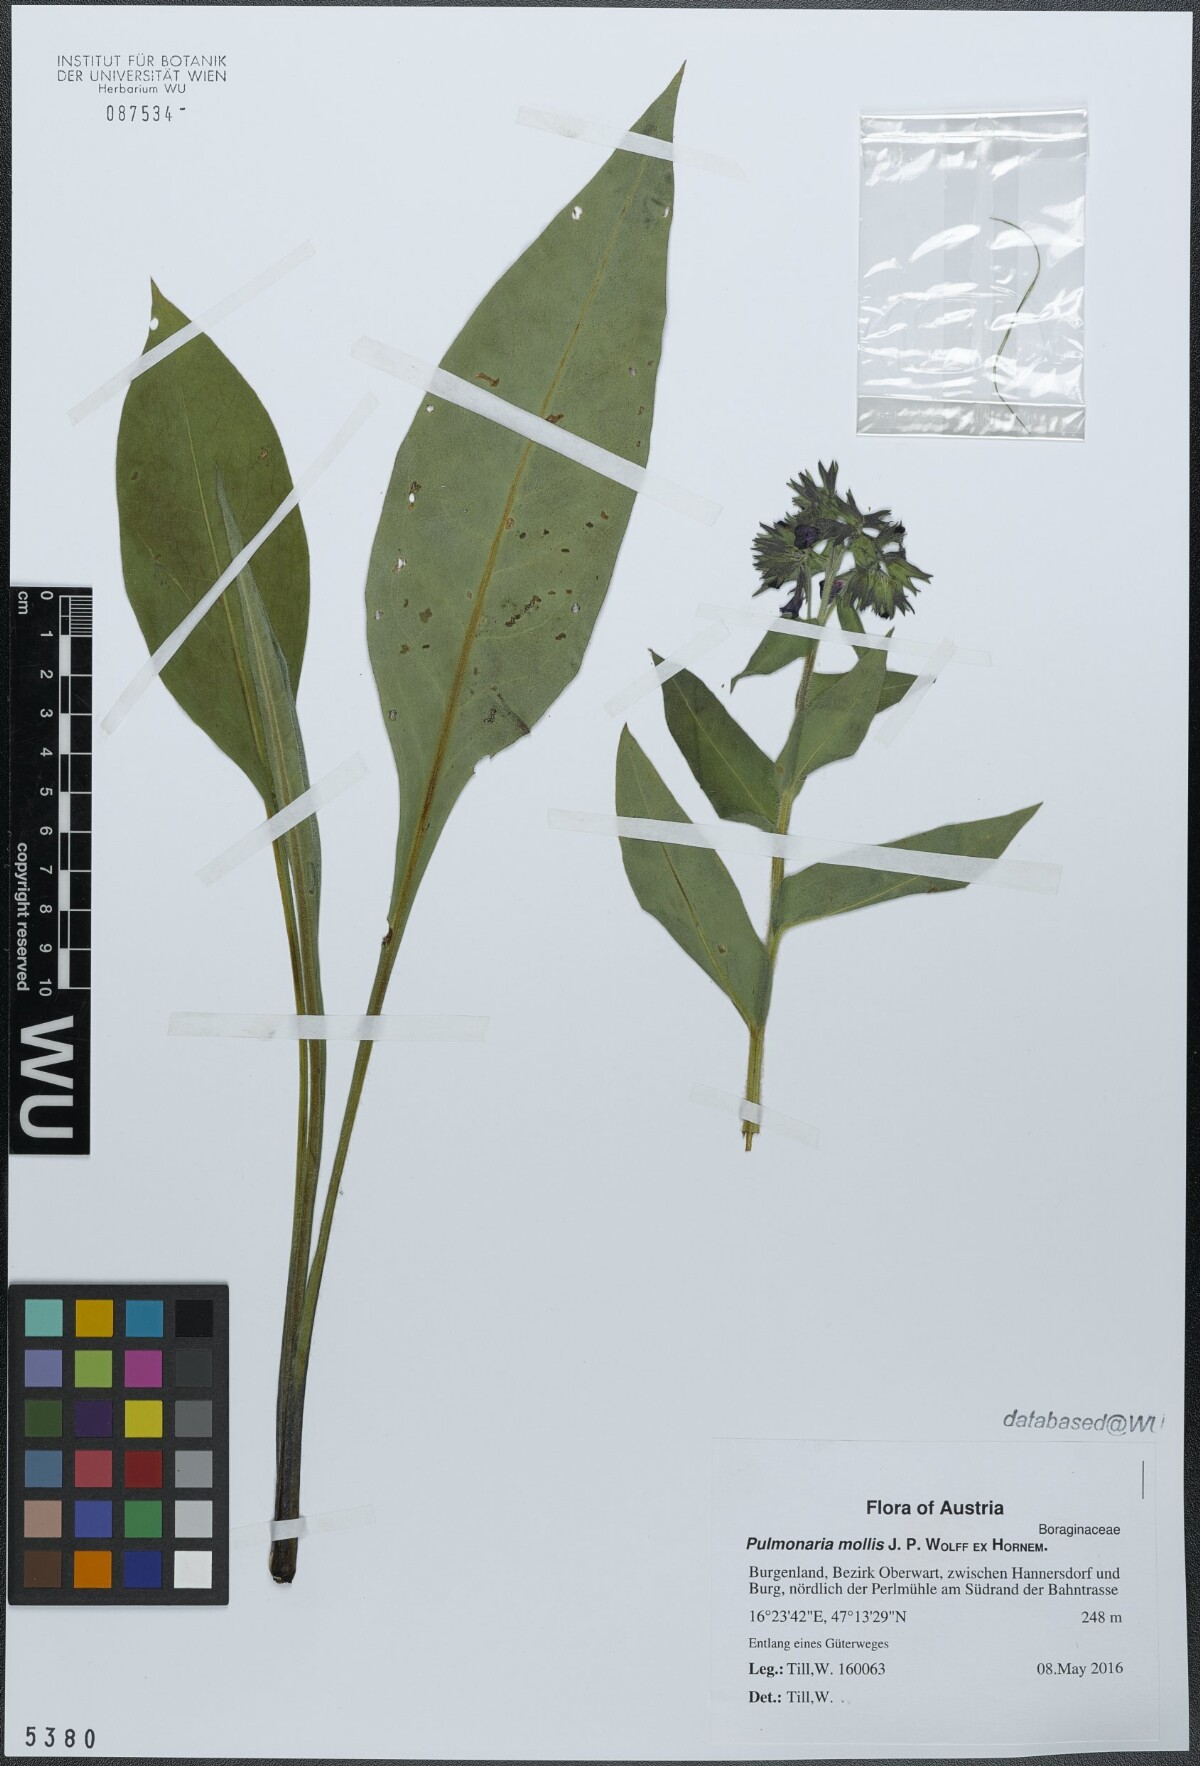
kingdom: Plantae
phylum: Tracheophyta
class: Magnoliopsida
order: Boraginales
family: Boraginaceae
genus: Pulmonaria
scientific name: Pulmonaria mollis
